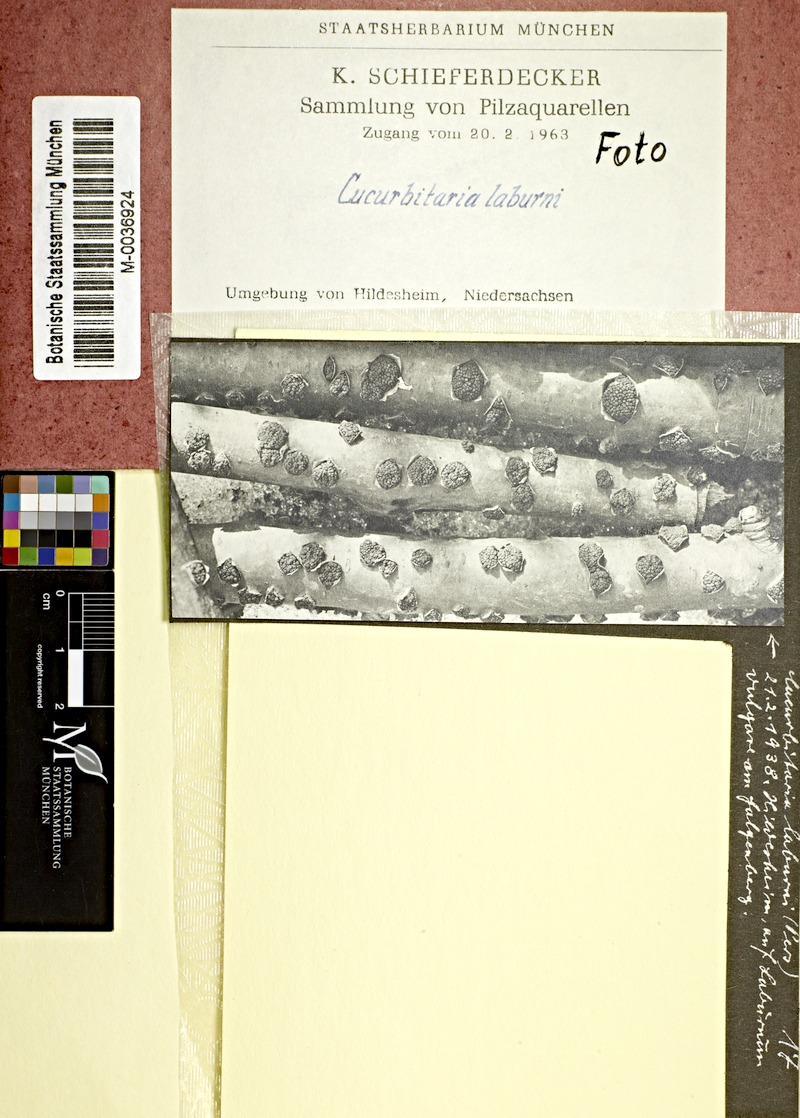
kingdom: Fungi
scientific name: Fungi
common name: Fungi
